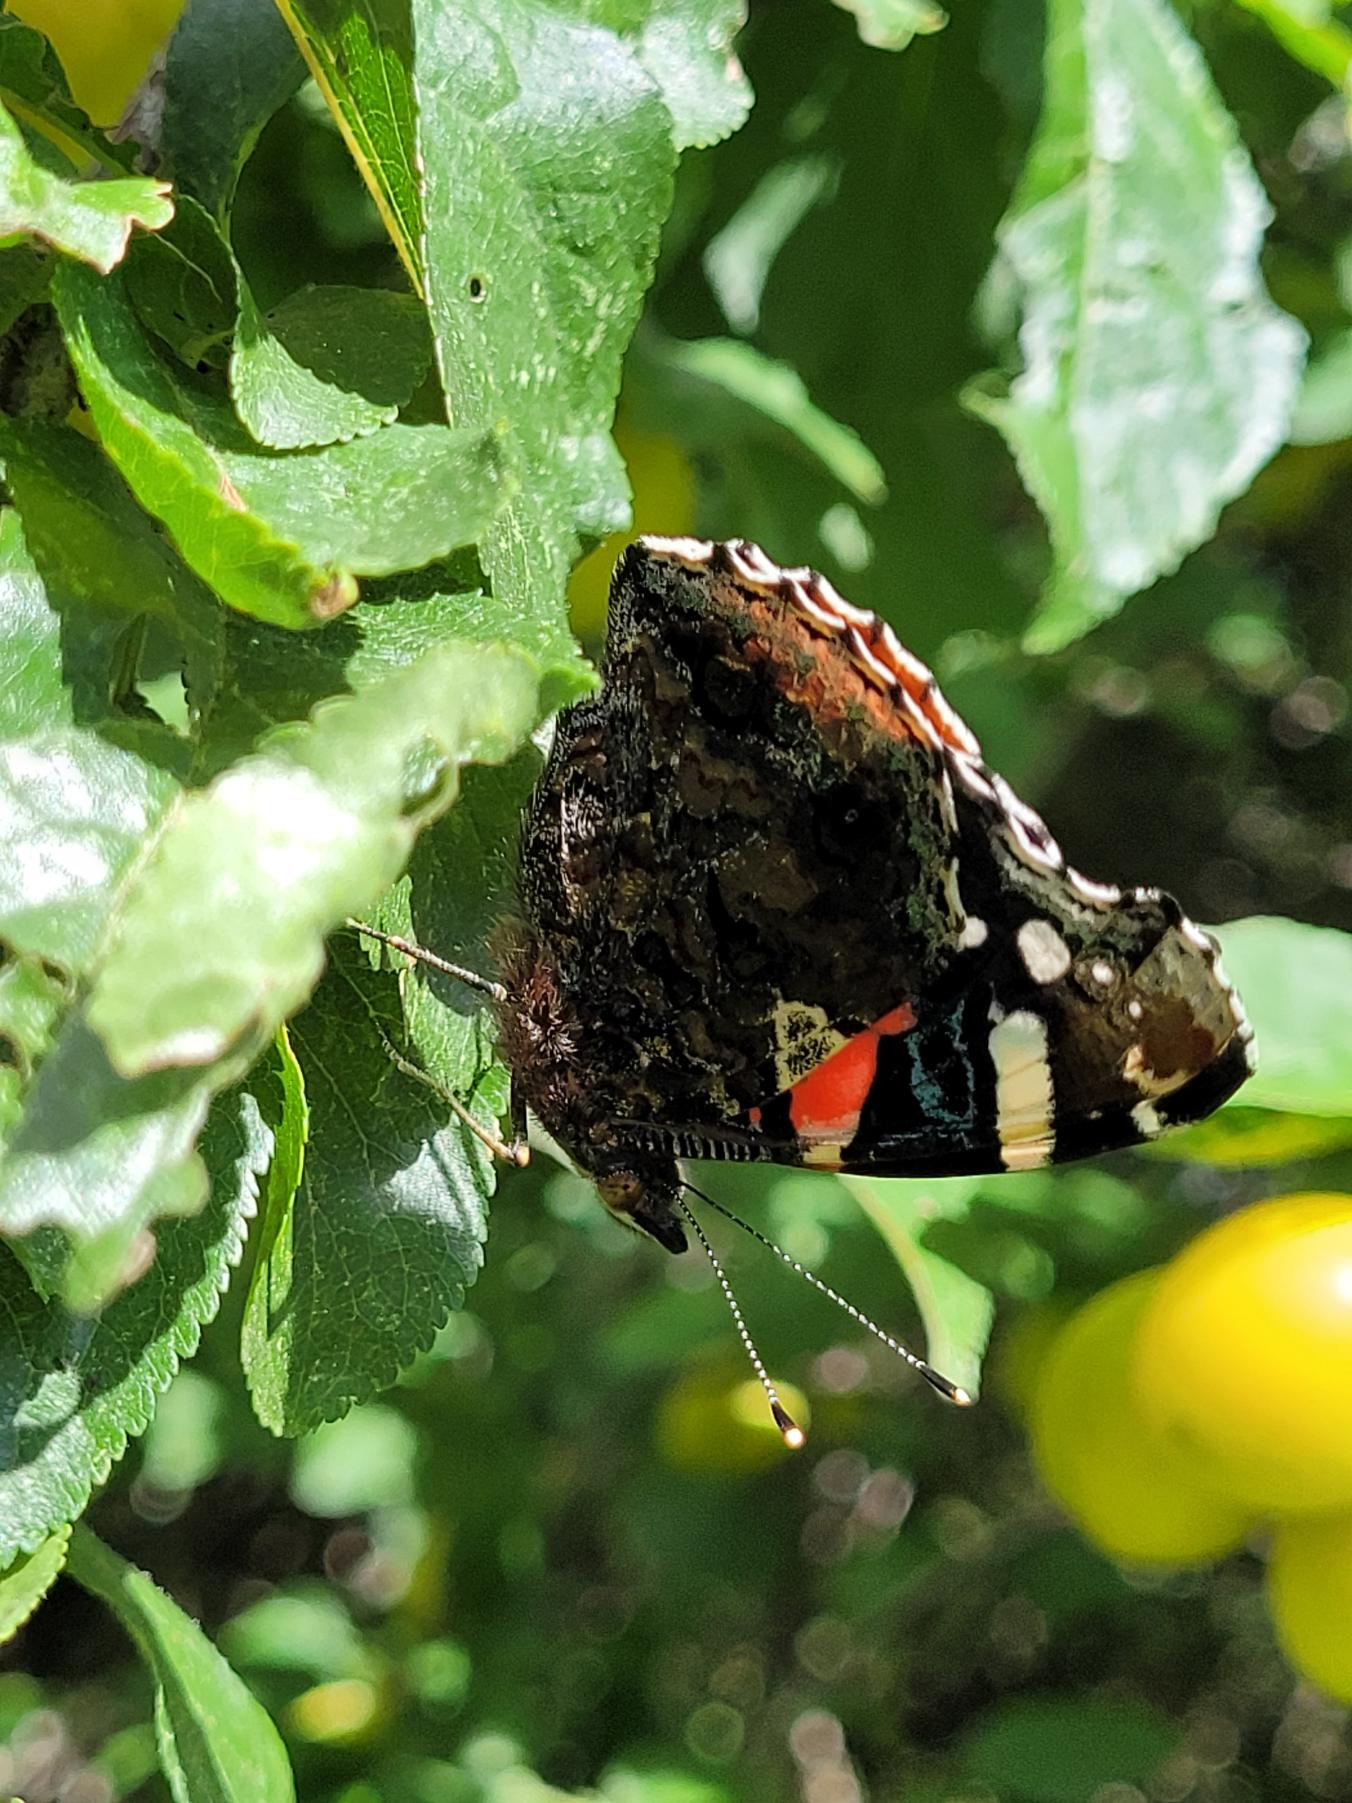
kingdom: Animalia
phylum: Arthropoda
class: Insecta
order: Lepidoptera
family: Nymphalidae
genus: Vanessa
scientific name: Vanessa atalanta
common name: Admiral
